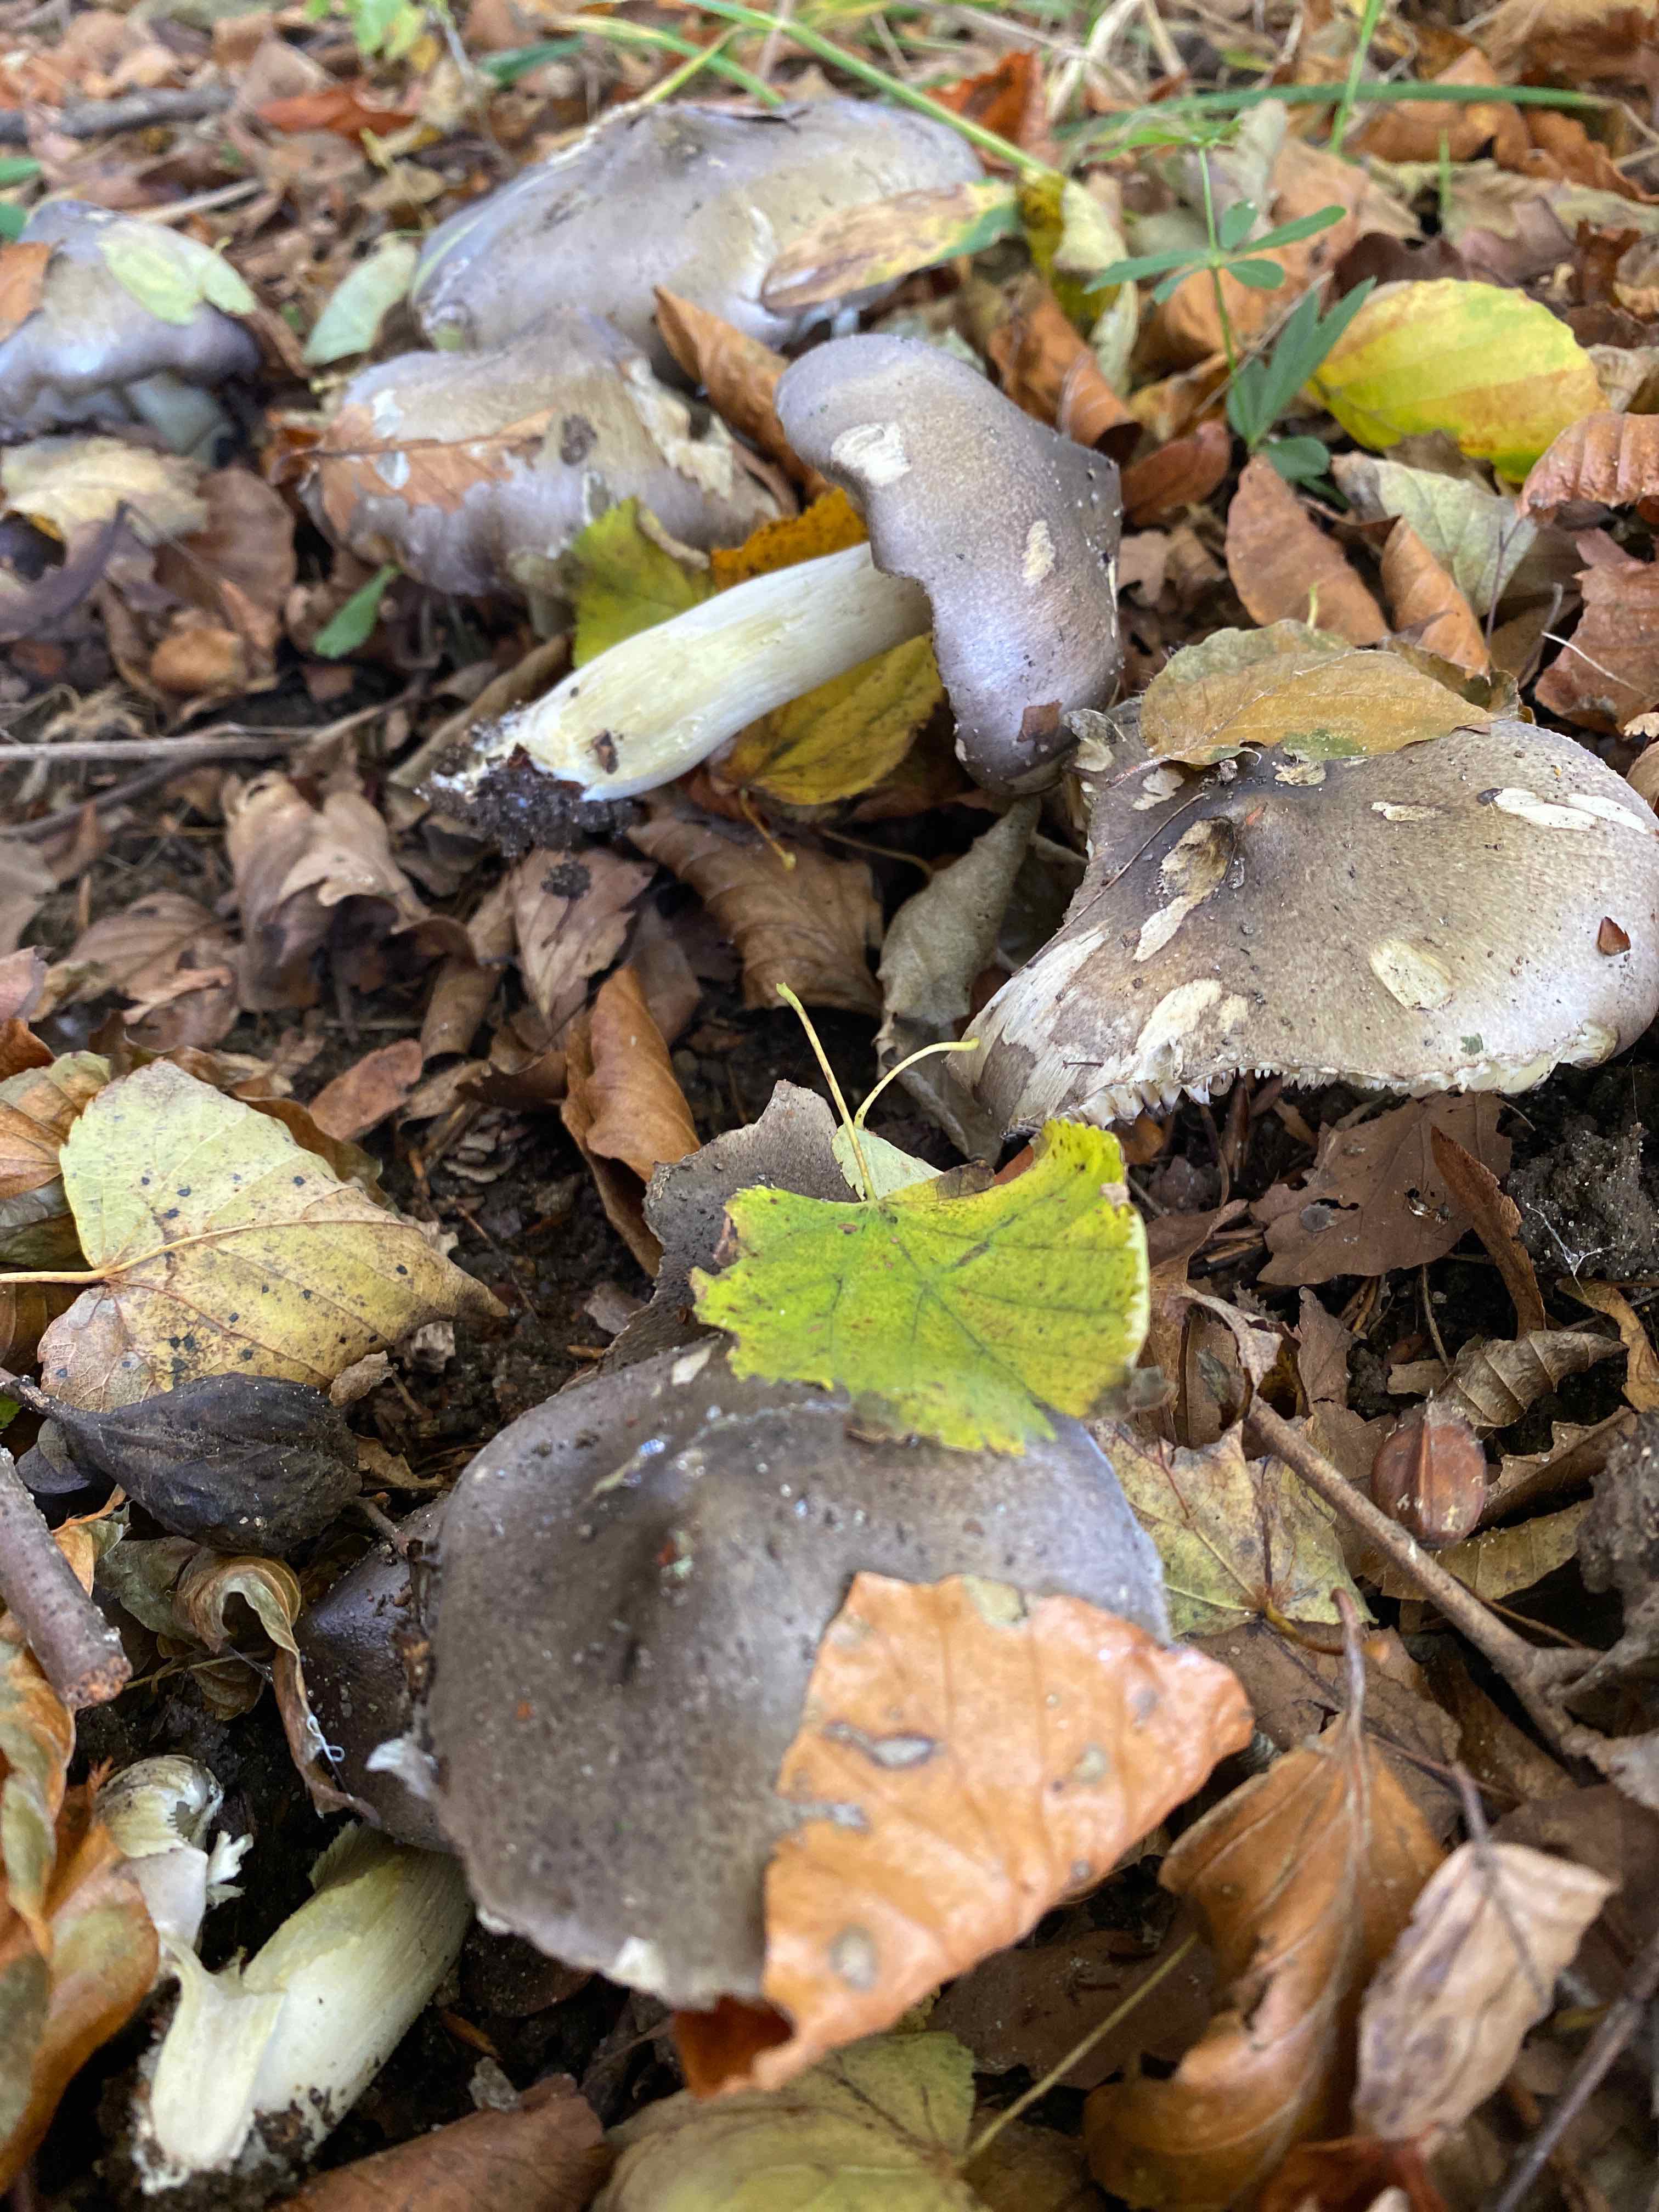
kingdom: Fungi
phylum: Basidiomycota
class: Agaricomycetes
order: Agaricales
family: Tricholomataceae
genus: Tricholoma
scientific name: Tricholoma sciodes
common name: stribet ridderhat
